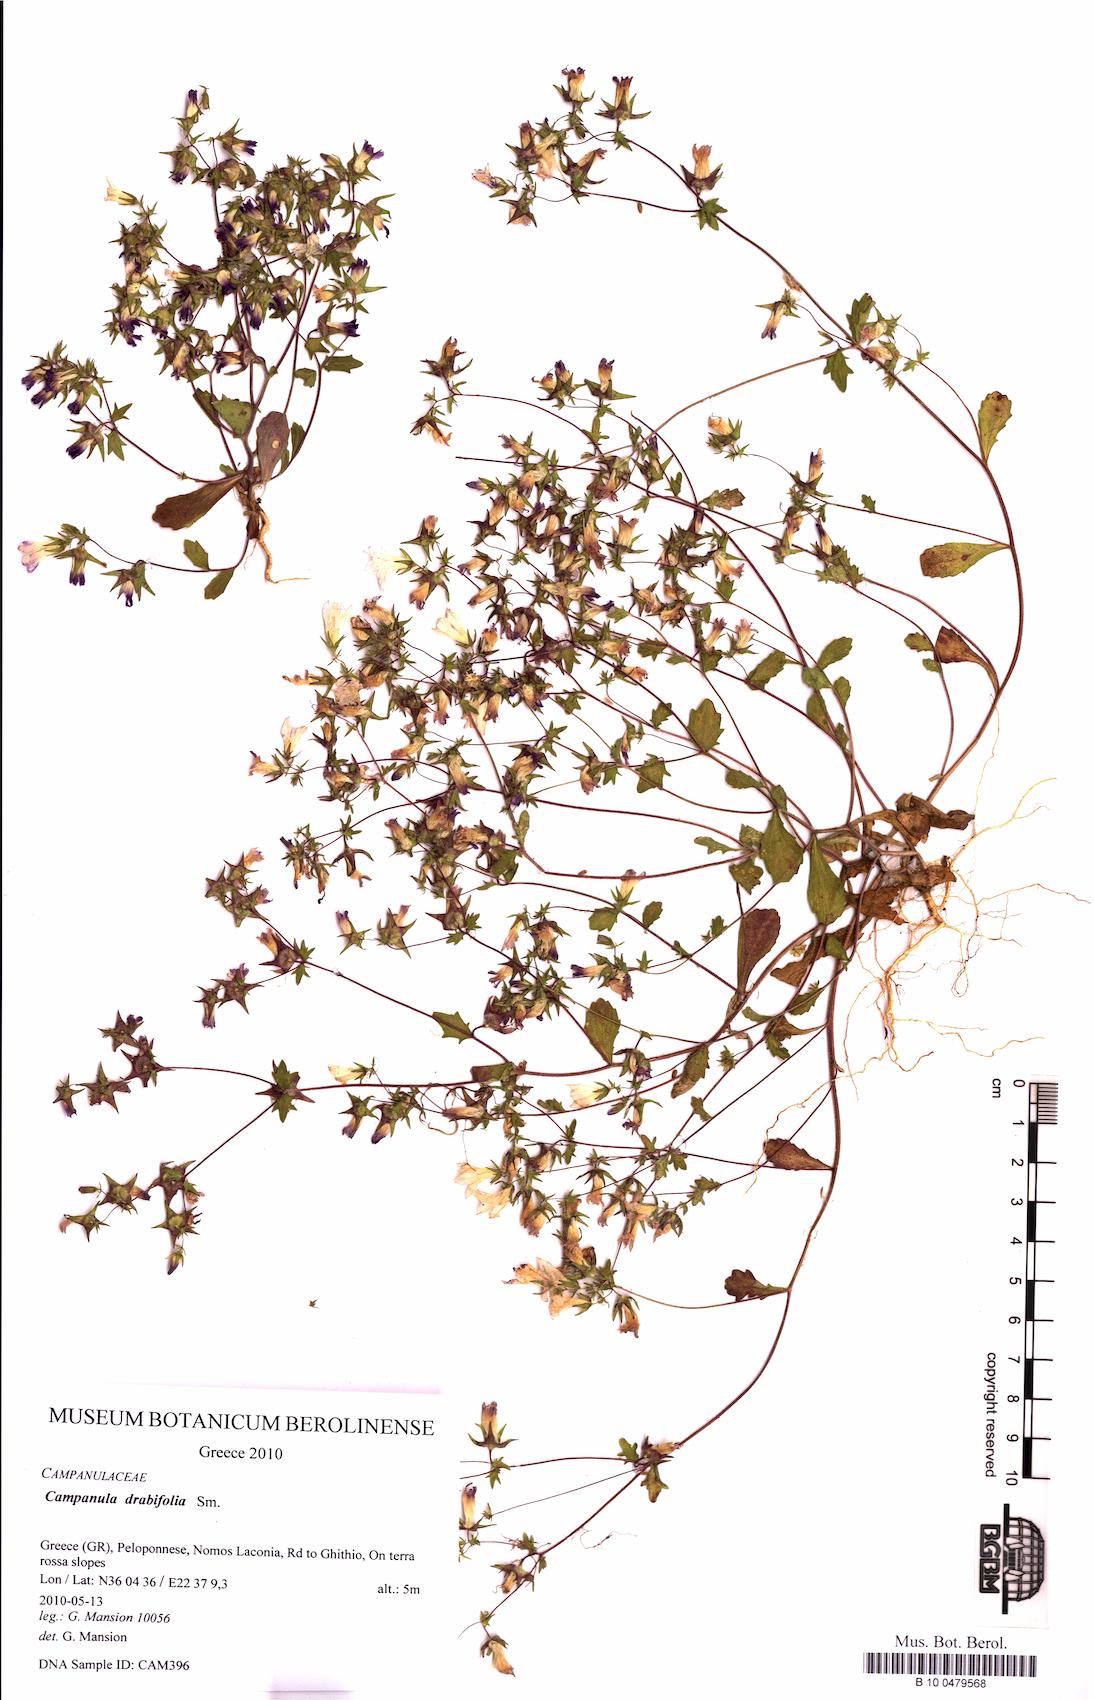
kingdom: Plantae
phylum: Tracheophyta
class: Magnoliopsida
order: Asterales
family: Campanulaceae
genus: Campanula
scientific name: Campanula drabifolia
